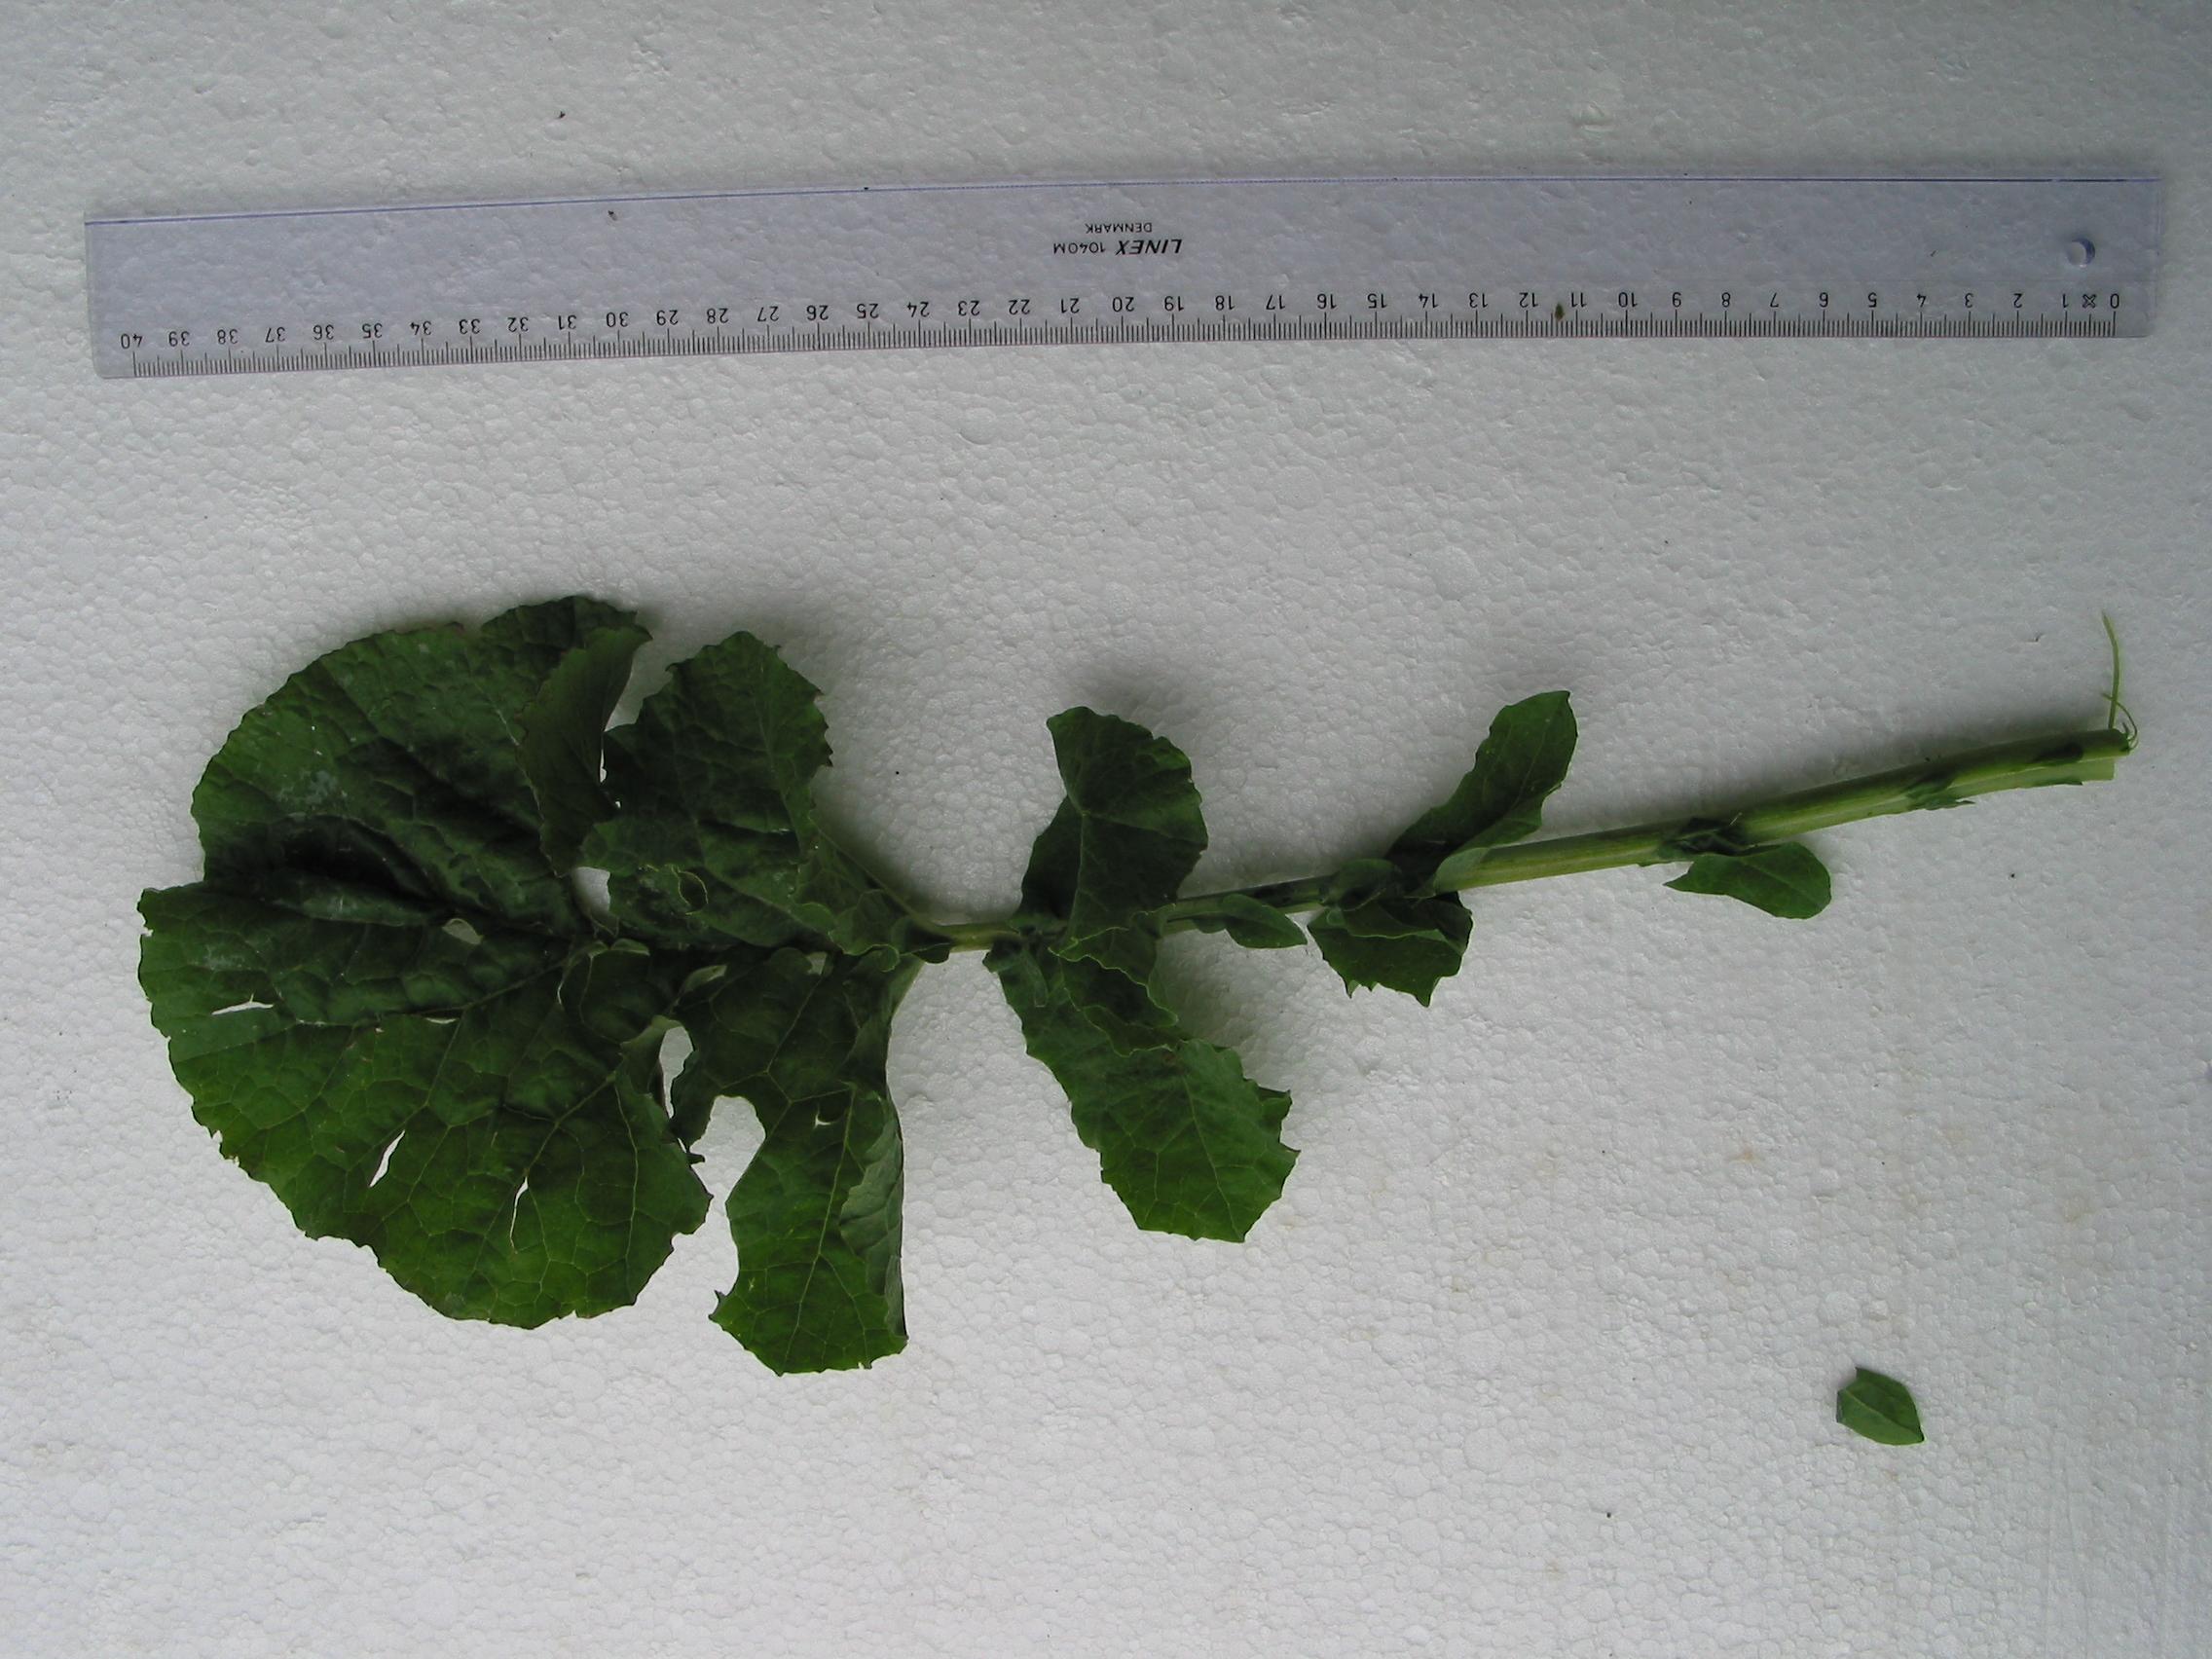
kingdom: Plantae
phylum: Tracheophyta
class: Magnoliopsida
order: Brassicales
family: Brassicaceae
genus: Brassica
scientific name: Brassica napus
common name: Rape
